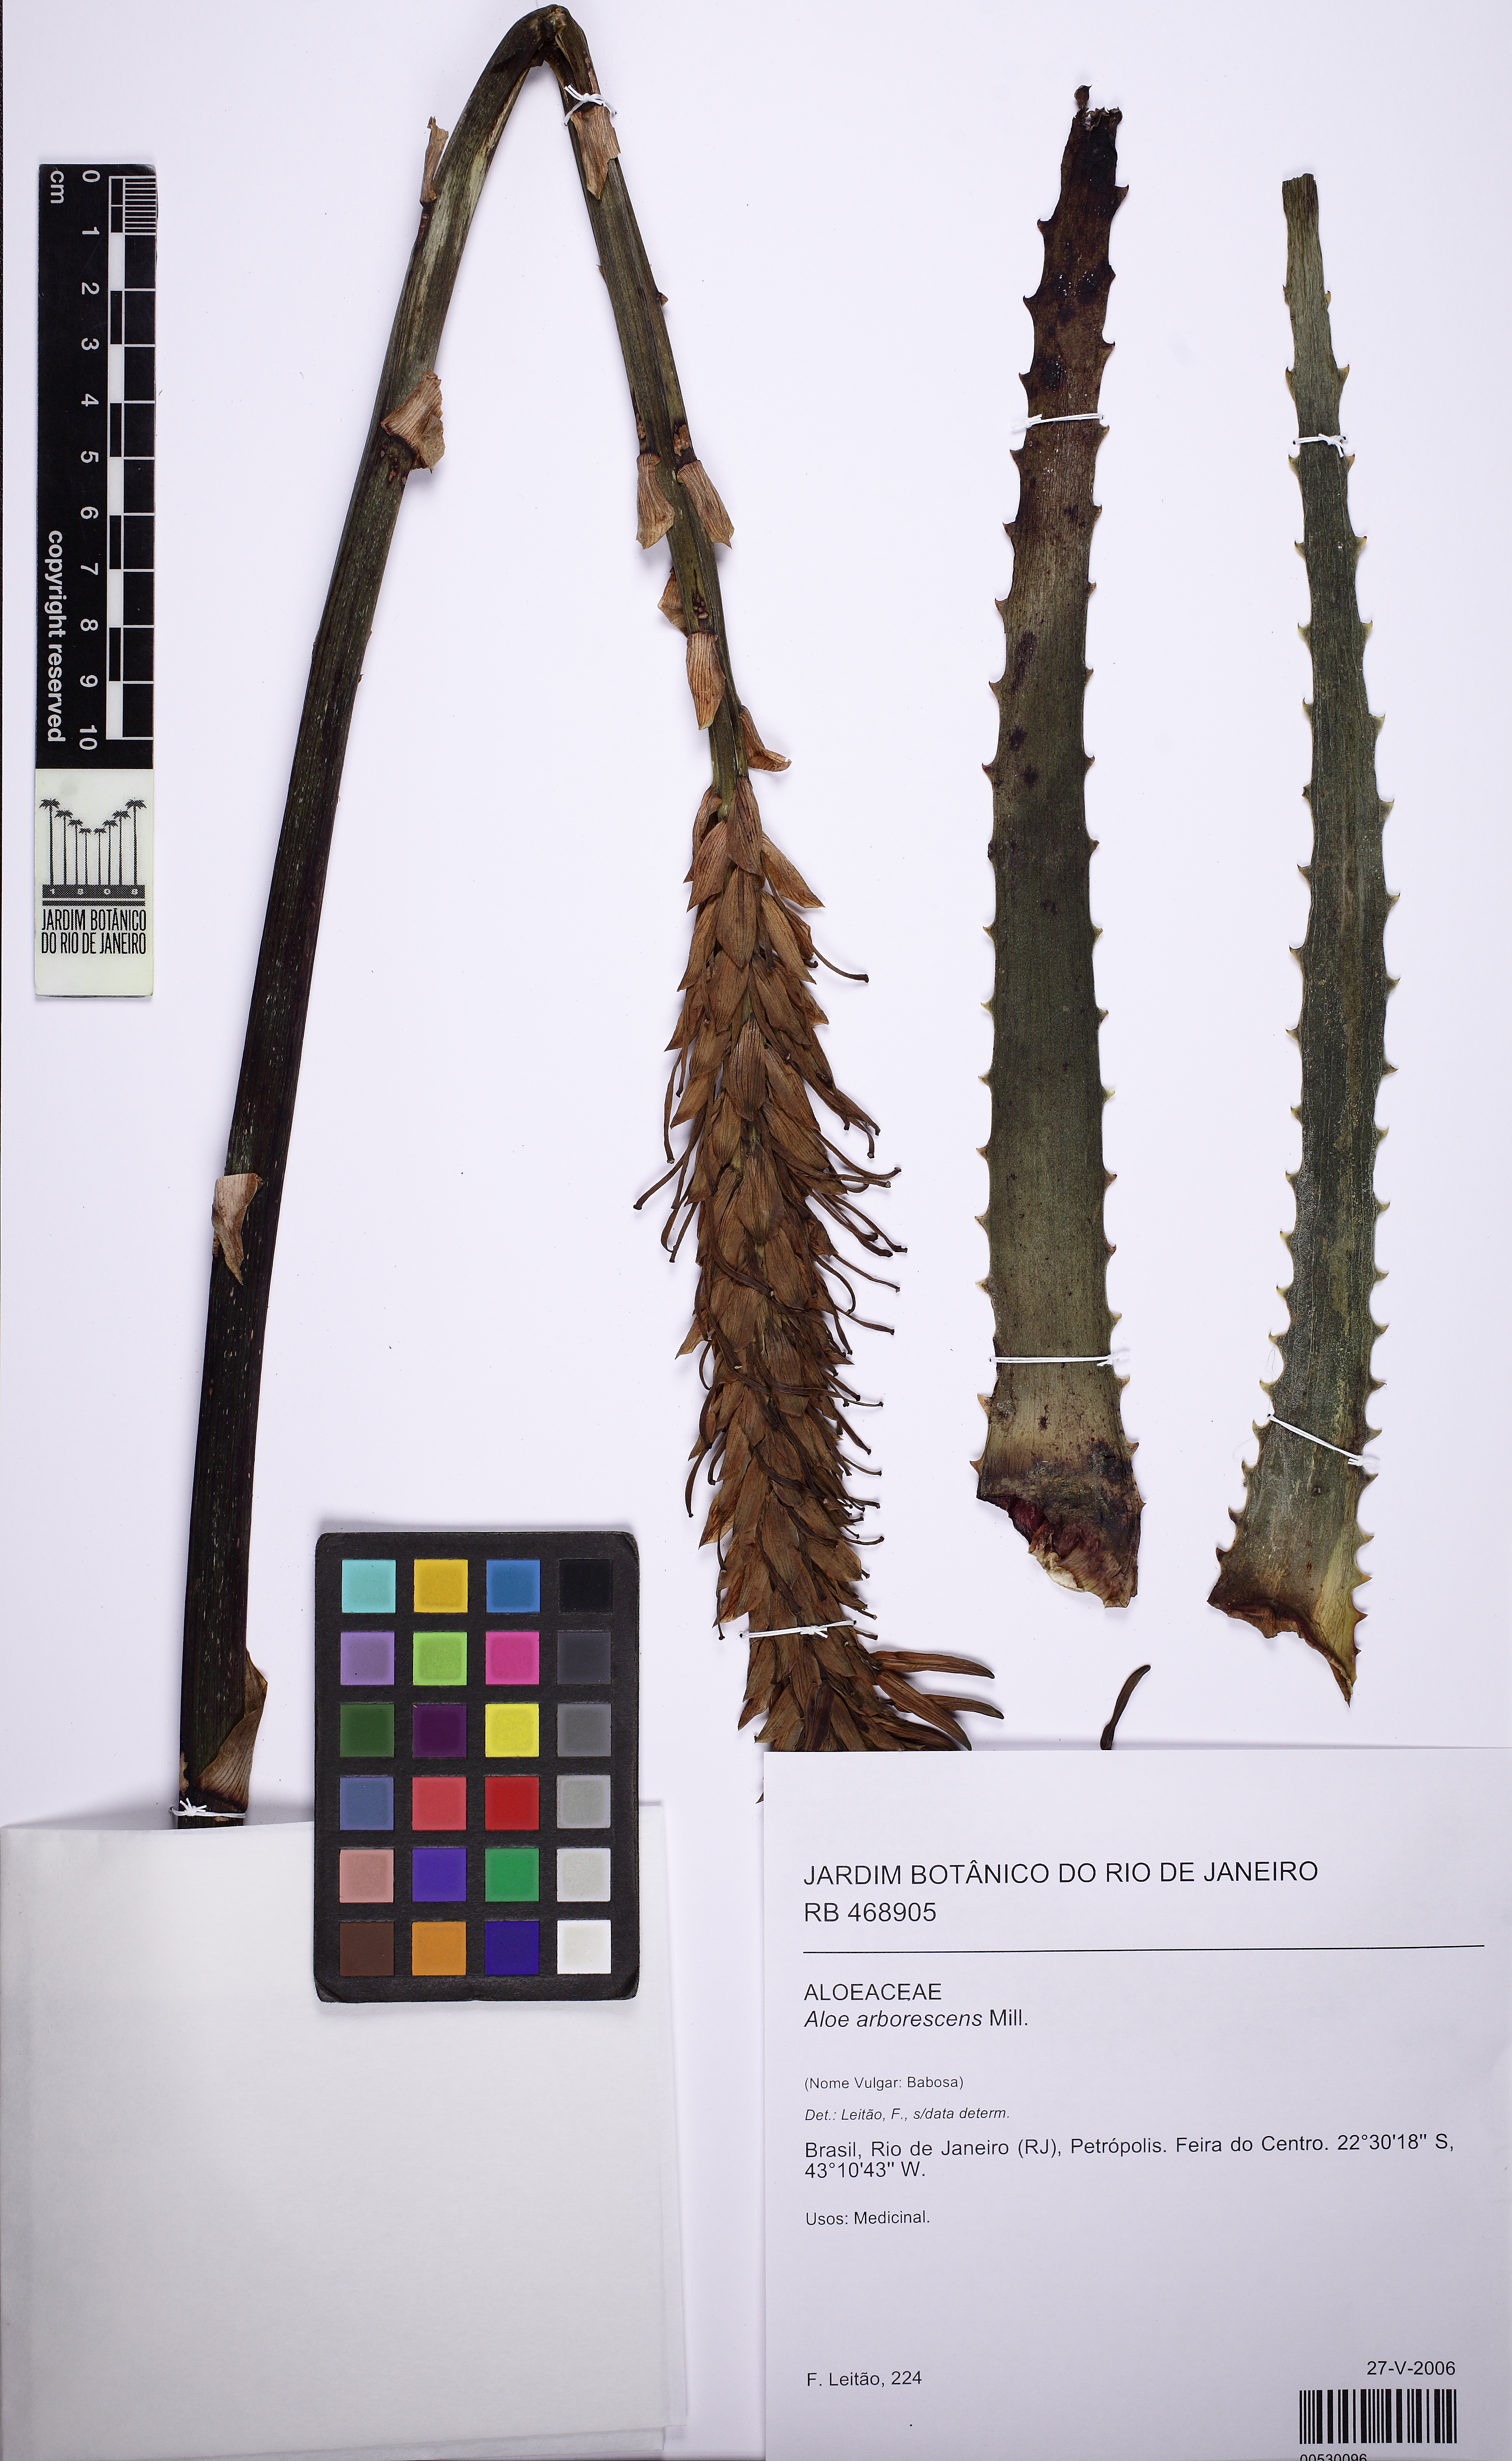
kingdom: Plantae
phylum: Tracheophyta
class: Liliopsida
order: Asparagales
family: Asphodelaceae
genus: Aloe
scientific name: Aloe arborescens
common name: Candelabra aloe
